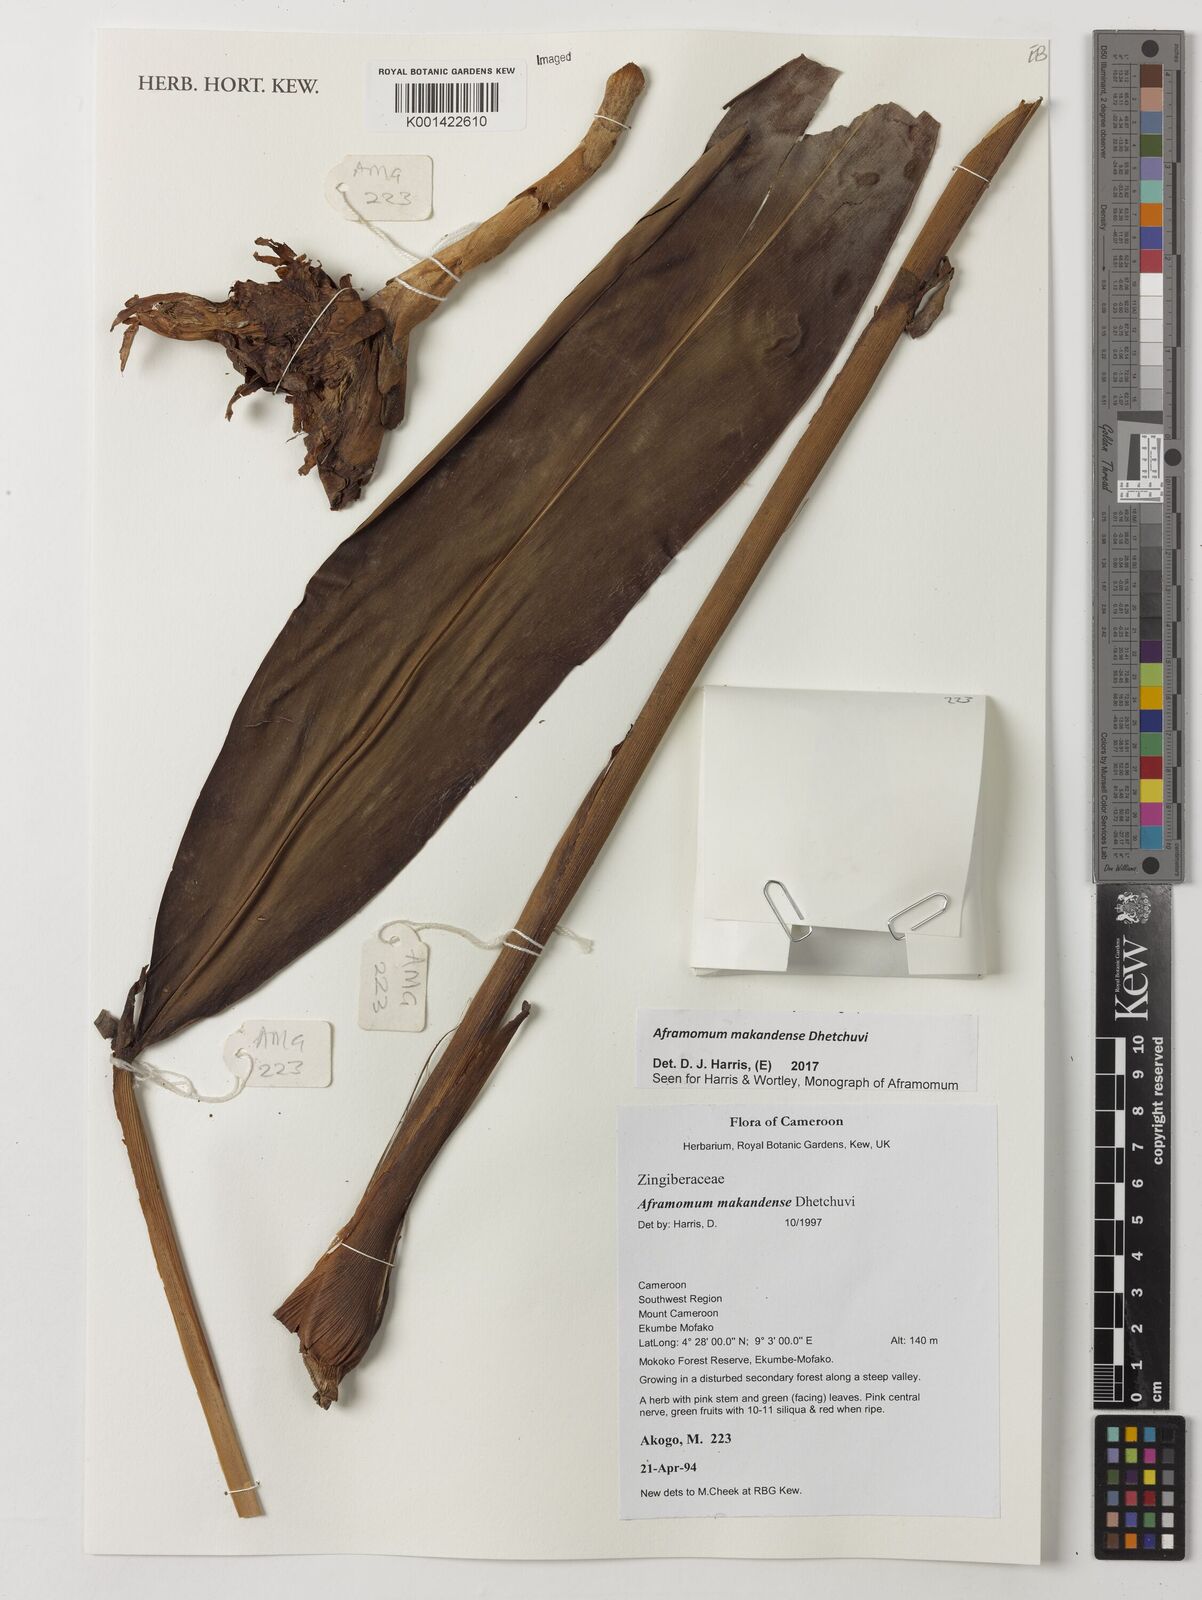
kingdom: Plantae
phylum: Tracheophyta
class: Liliopsida
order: Zingiberales
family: Zingiberaceae
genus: Aframomum
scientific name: Aframomum makandensis
